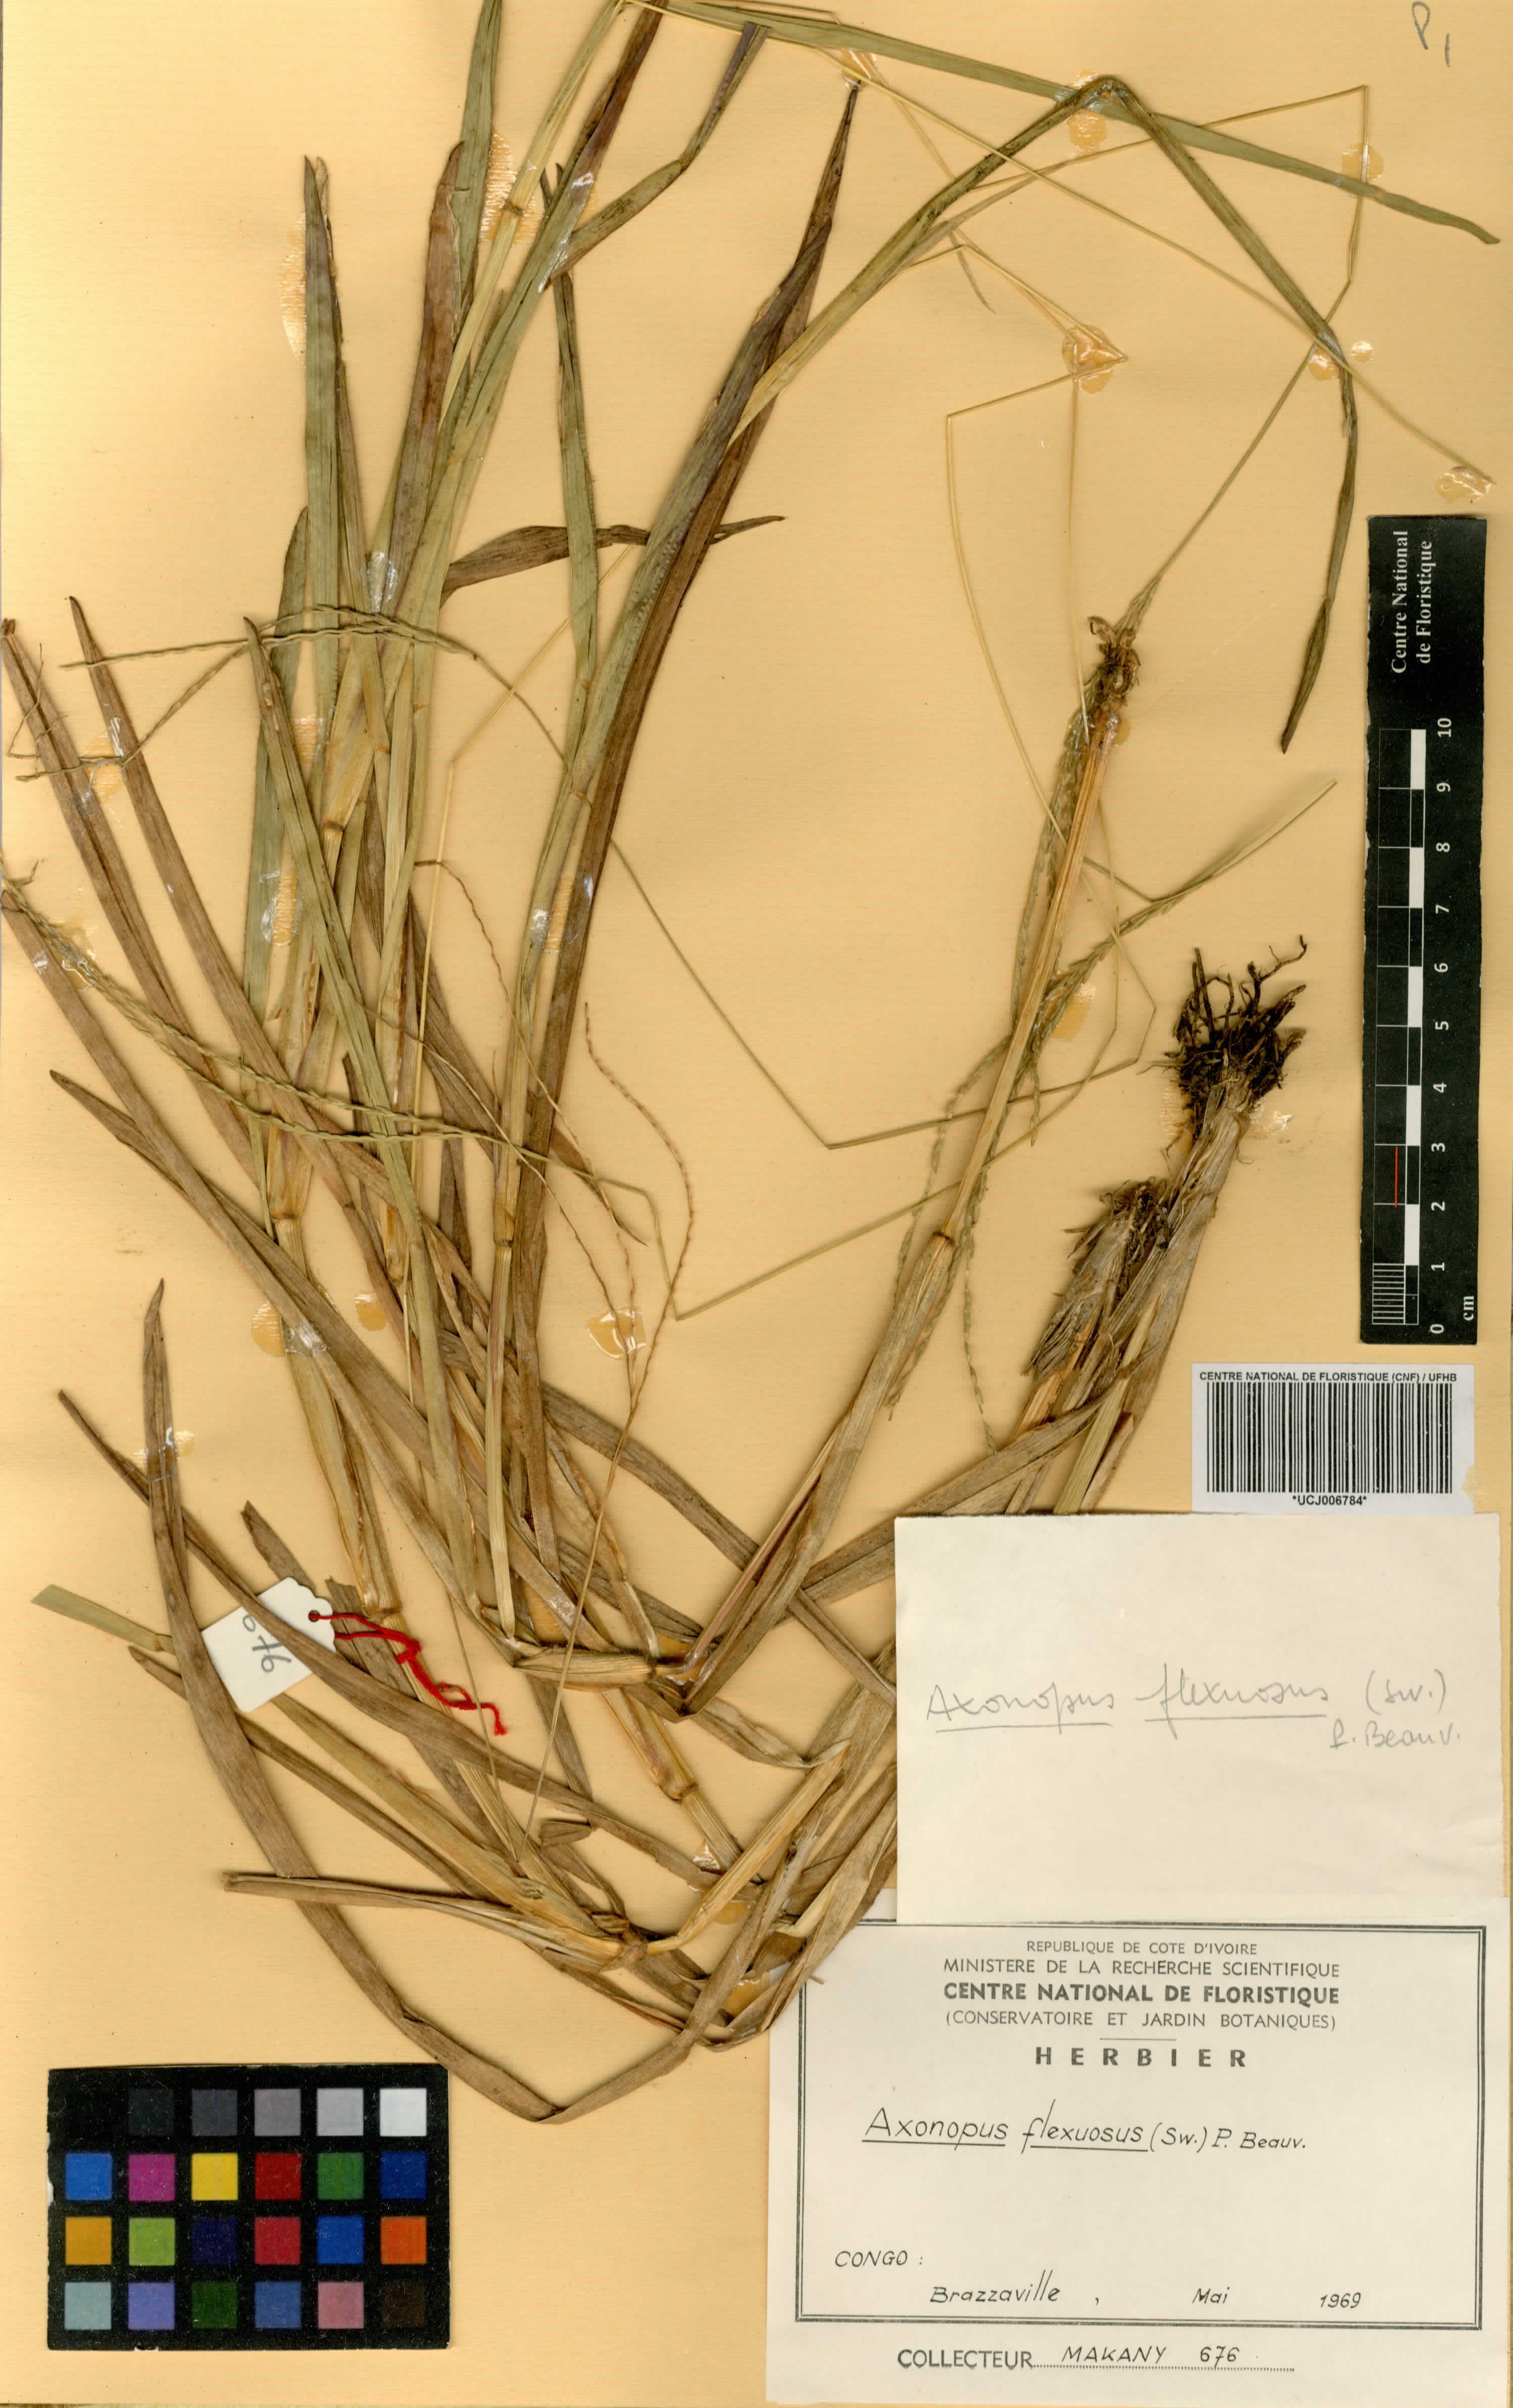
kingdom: Plantae
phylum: Tracheophyta
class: Liliopsida
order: Poales
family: Poaceae
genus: Axonopus
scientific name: Axonopus flexuosus
